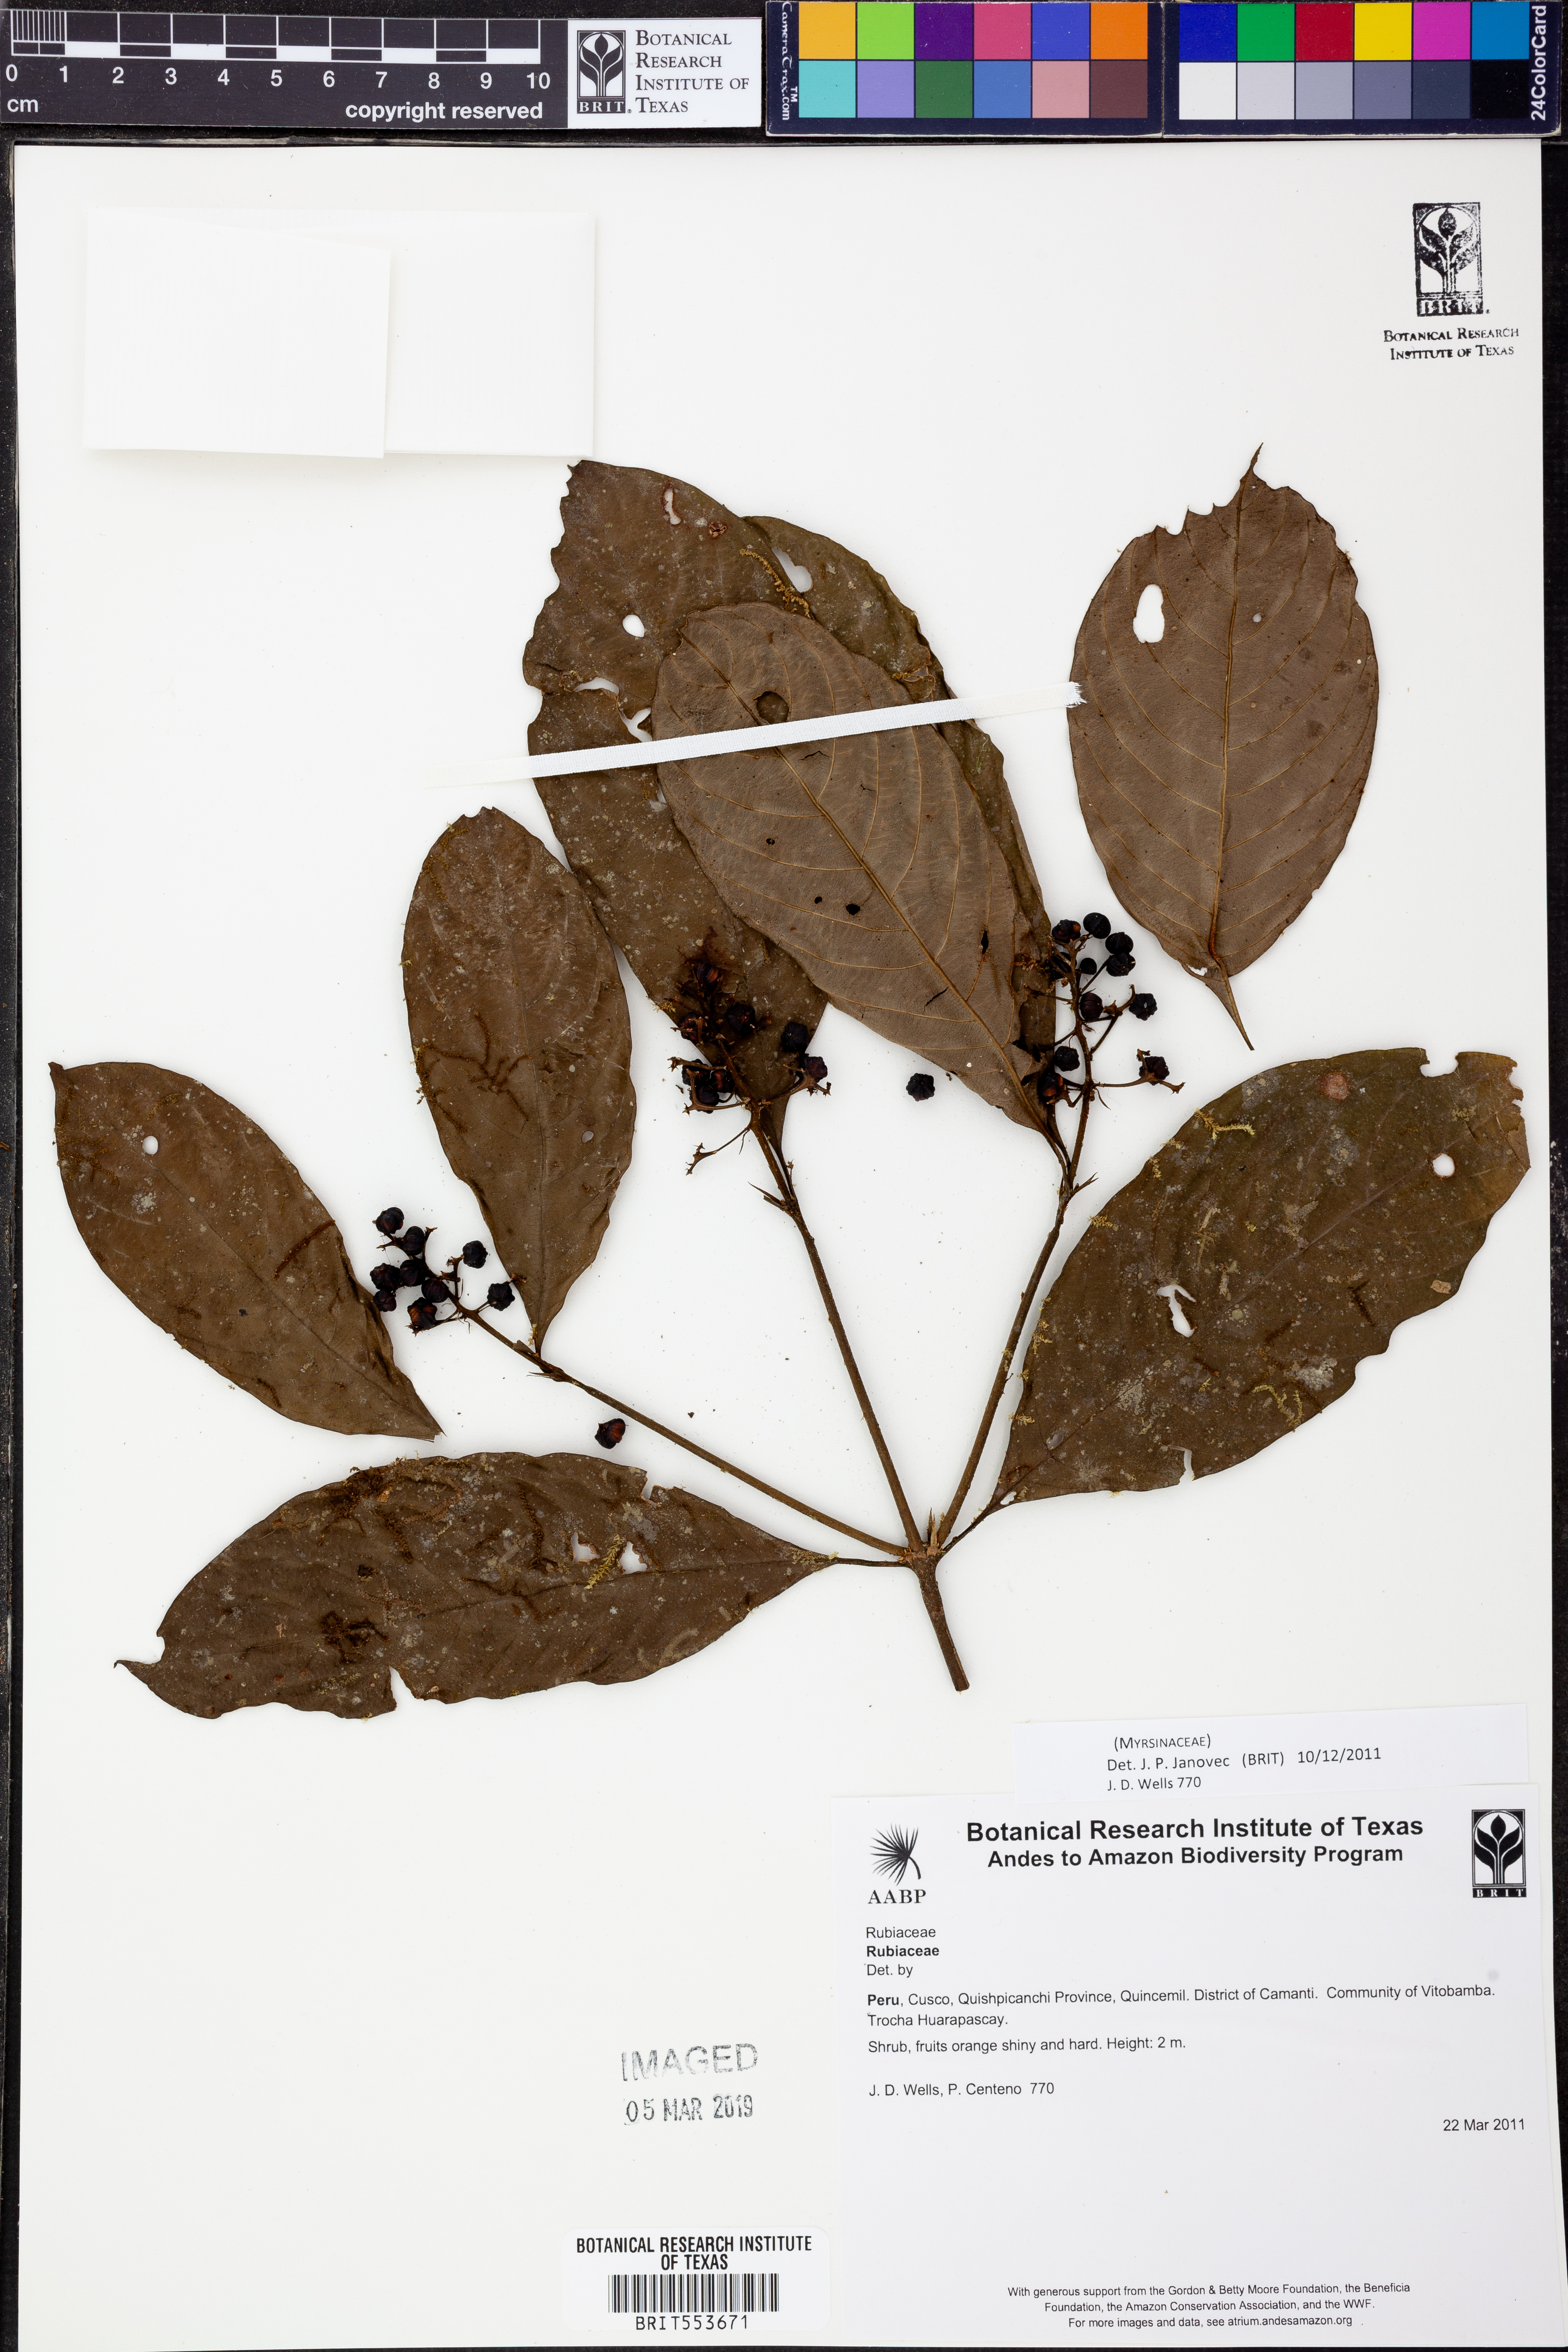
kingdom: Plantae
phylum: Tracheophyta
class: Magnoliopsida
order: Ericales
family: Primulaceae
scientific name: Primulaceae
